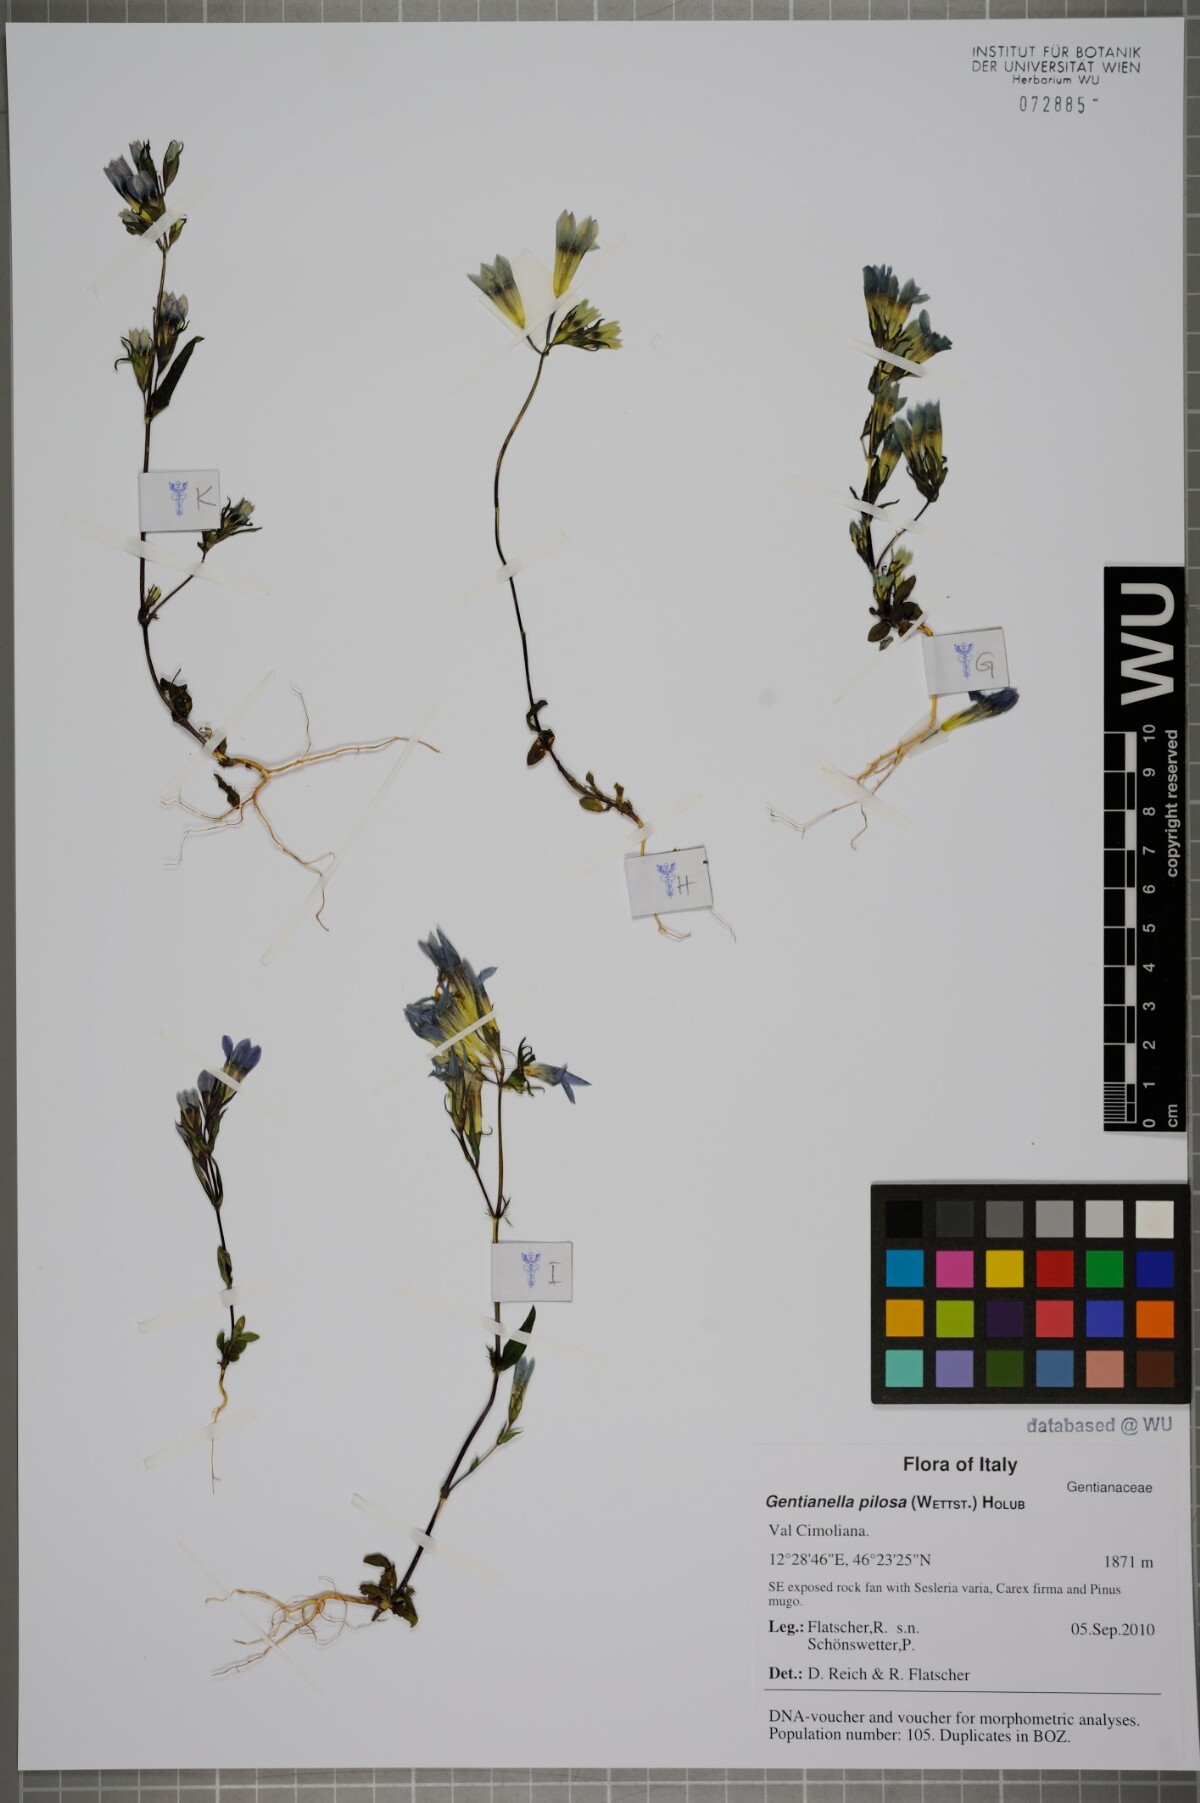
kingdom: Plantae
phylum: Tracheophyta
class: Magnoliopsida
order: Gentianales
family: Gentianaceae
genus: Gentianella
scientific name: Gentianella pilosa
